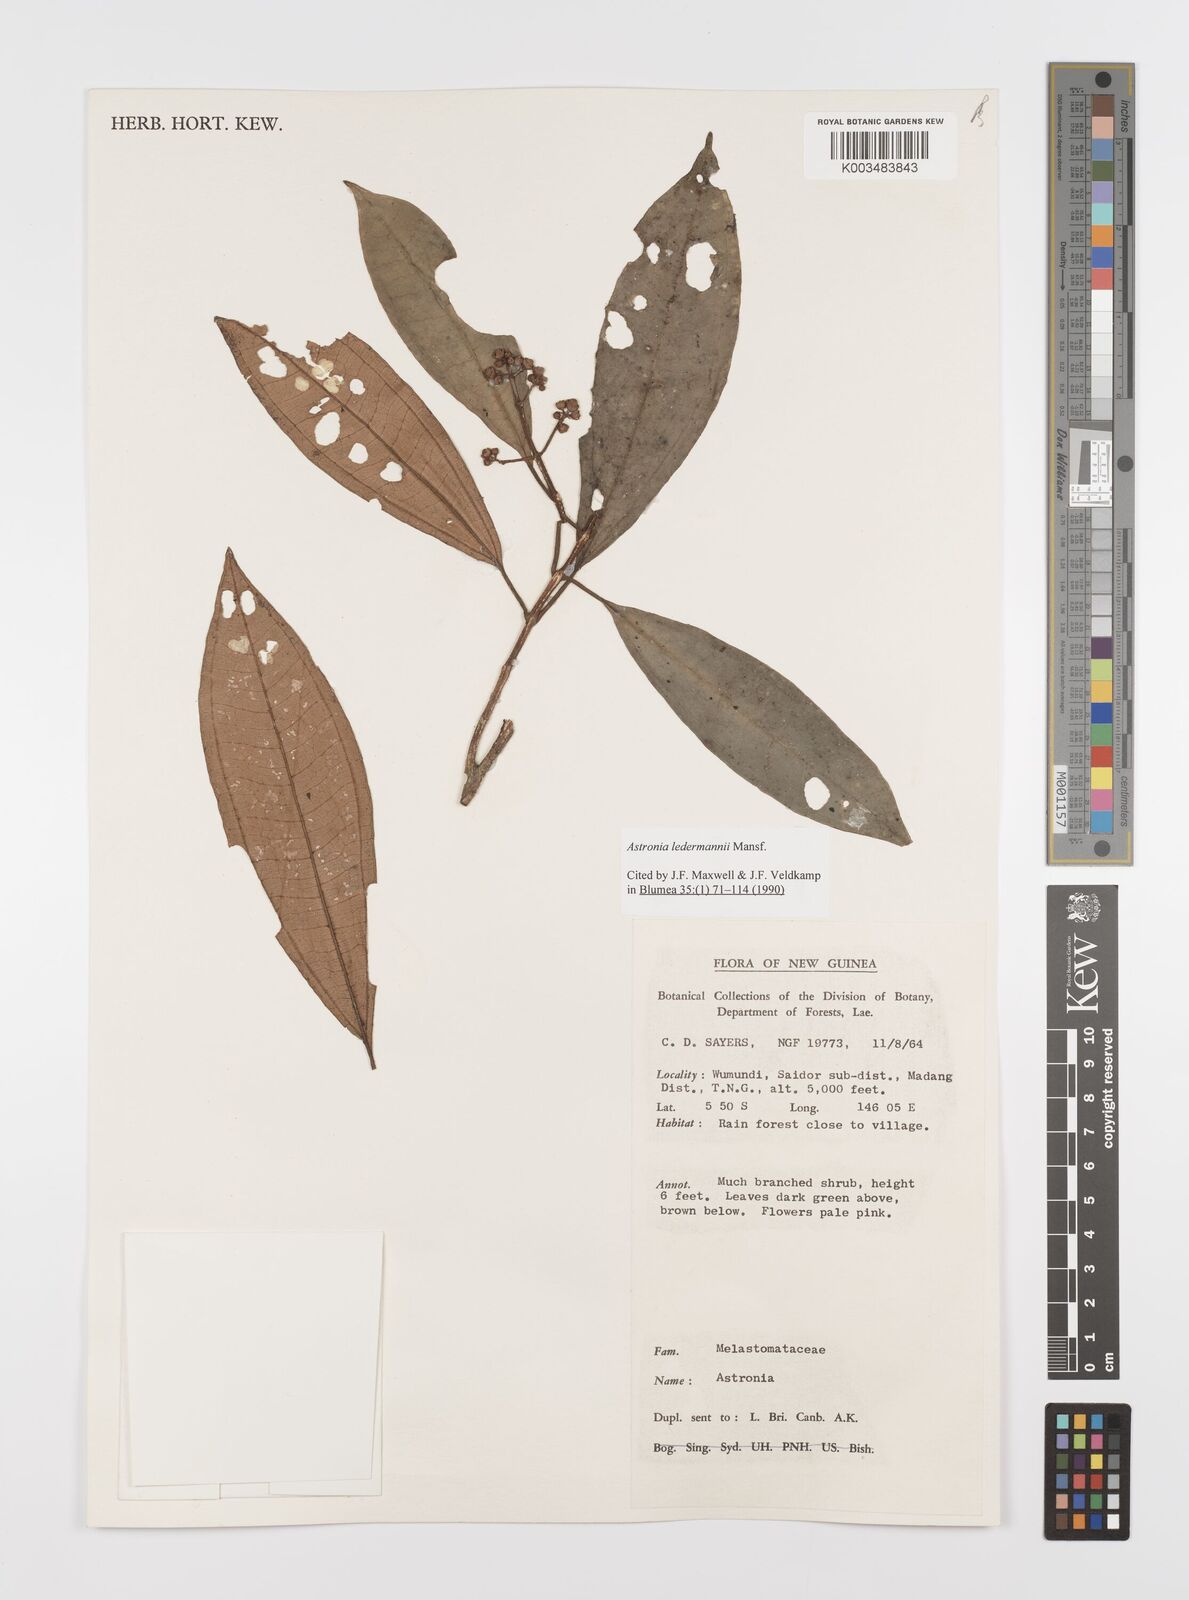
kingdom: Plantae
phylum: Tracheophyta
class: Magnoliopsida
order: Myrtales
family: Melastomataceae
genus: Astronia
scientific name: Astronia ledermannii
